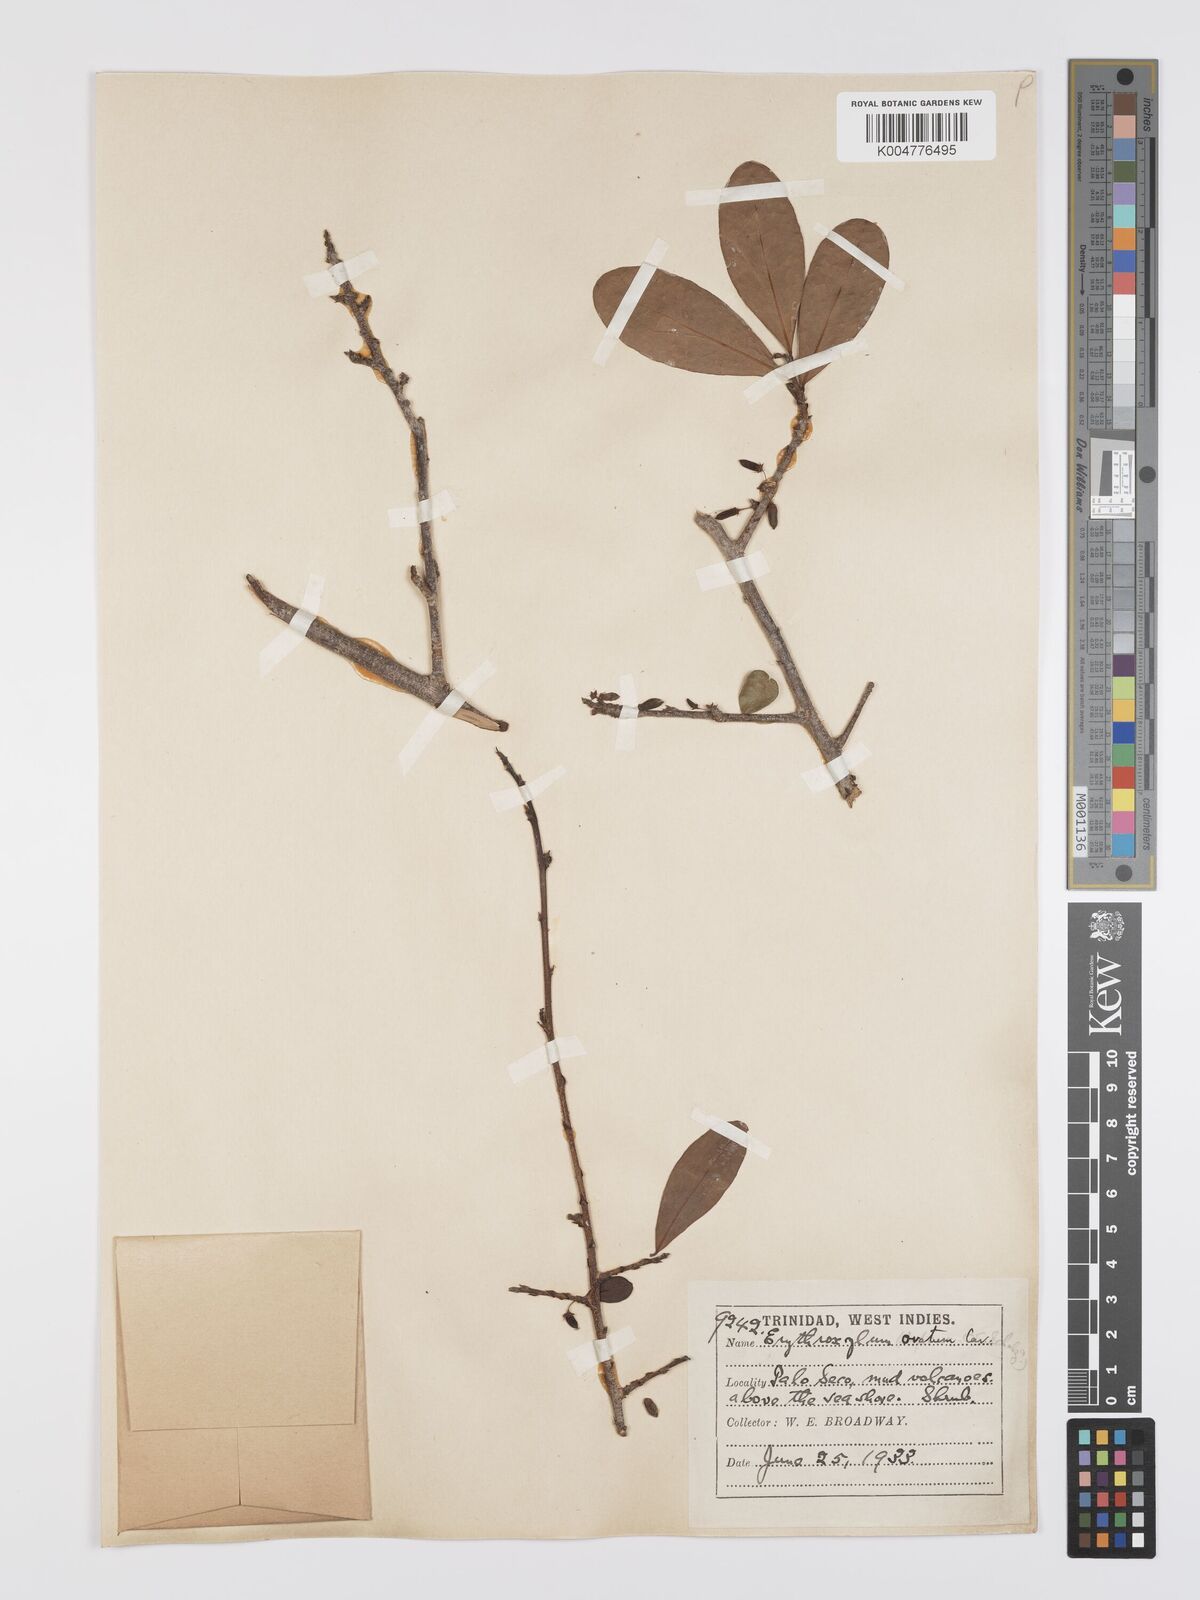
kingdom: Plantae
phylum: Tracheophyta
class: Magnoliopsida
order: Malpighiales
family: Erythroxylaceae
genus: Erythroxylum
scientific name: Erythroxylum havanense
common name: Bracelet
